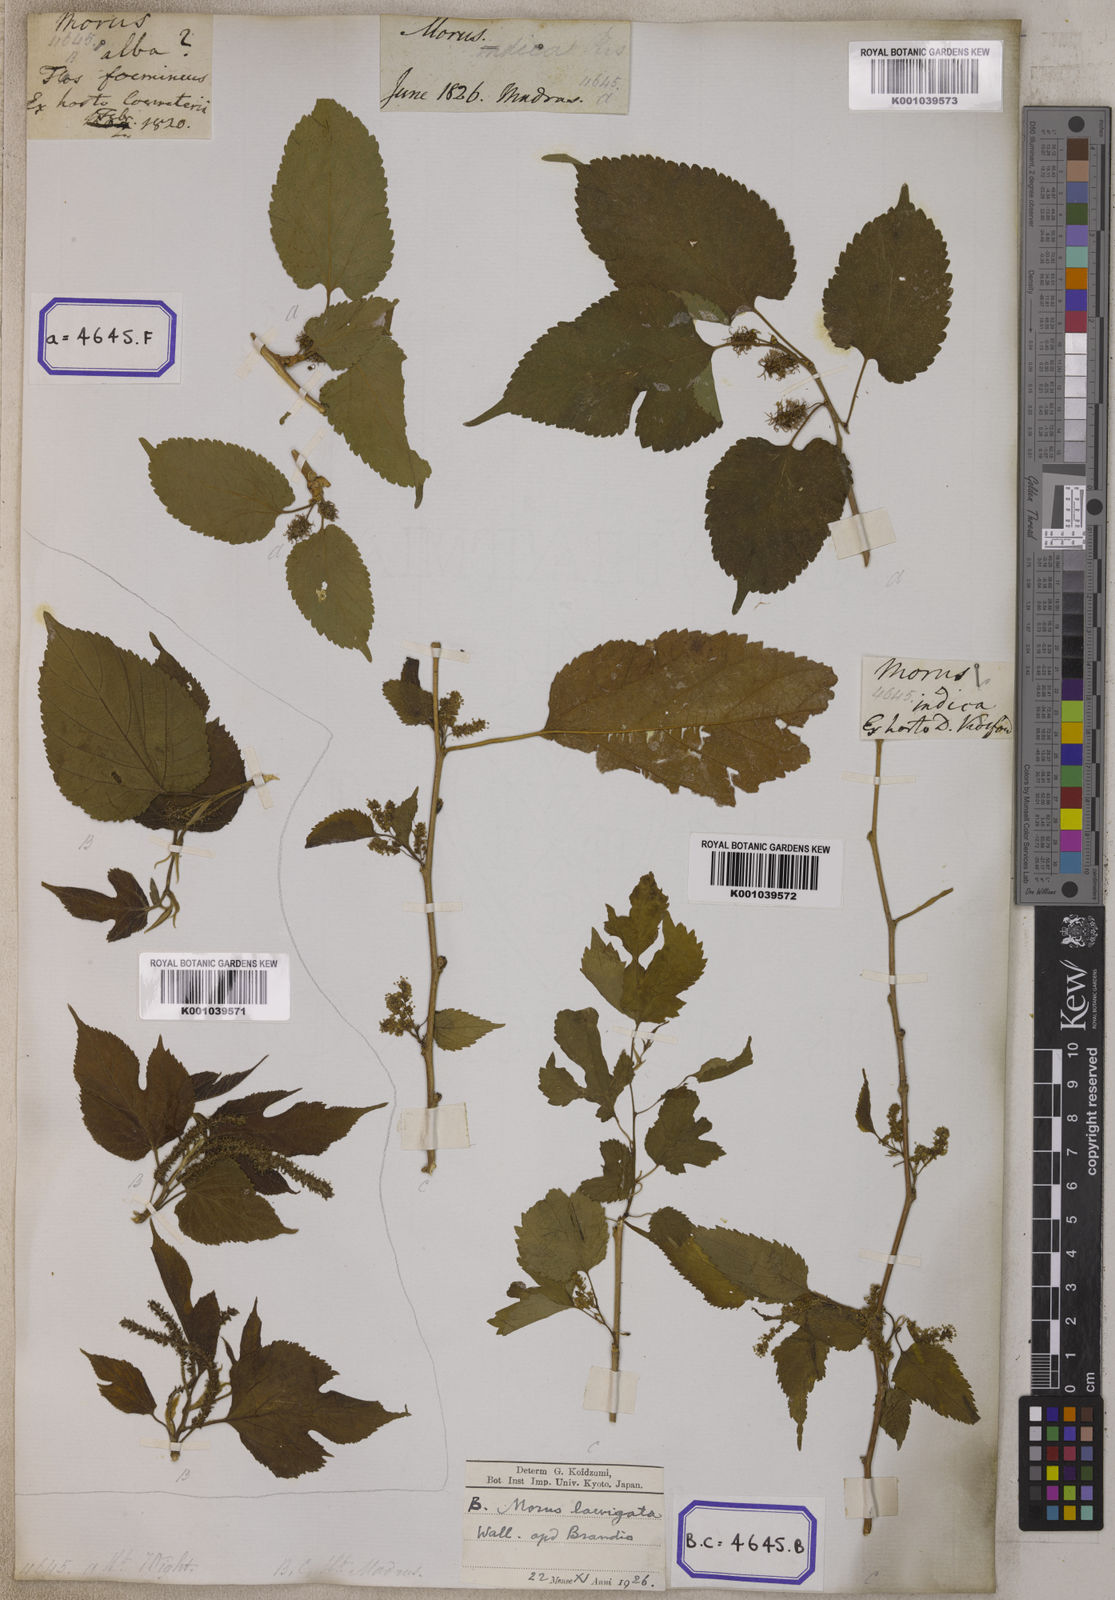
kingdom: Plantae
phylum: Tracheophyta
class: Magnoliopsida
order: Rosales
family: Moraceae
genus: Morus
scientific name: Morus indica
